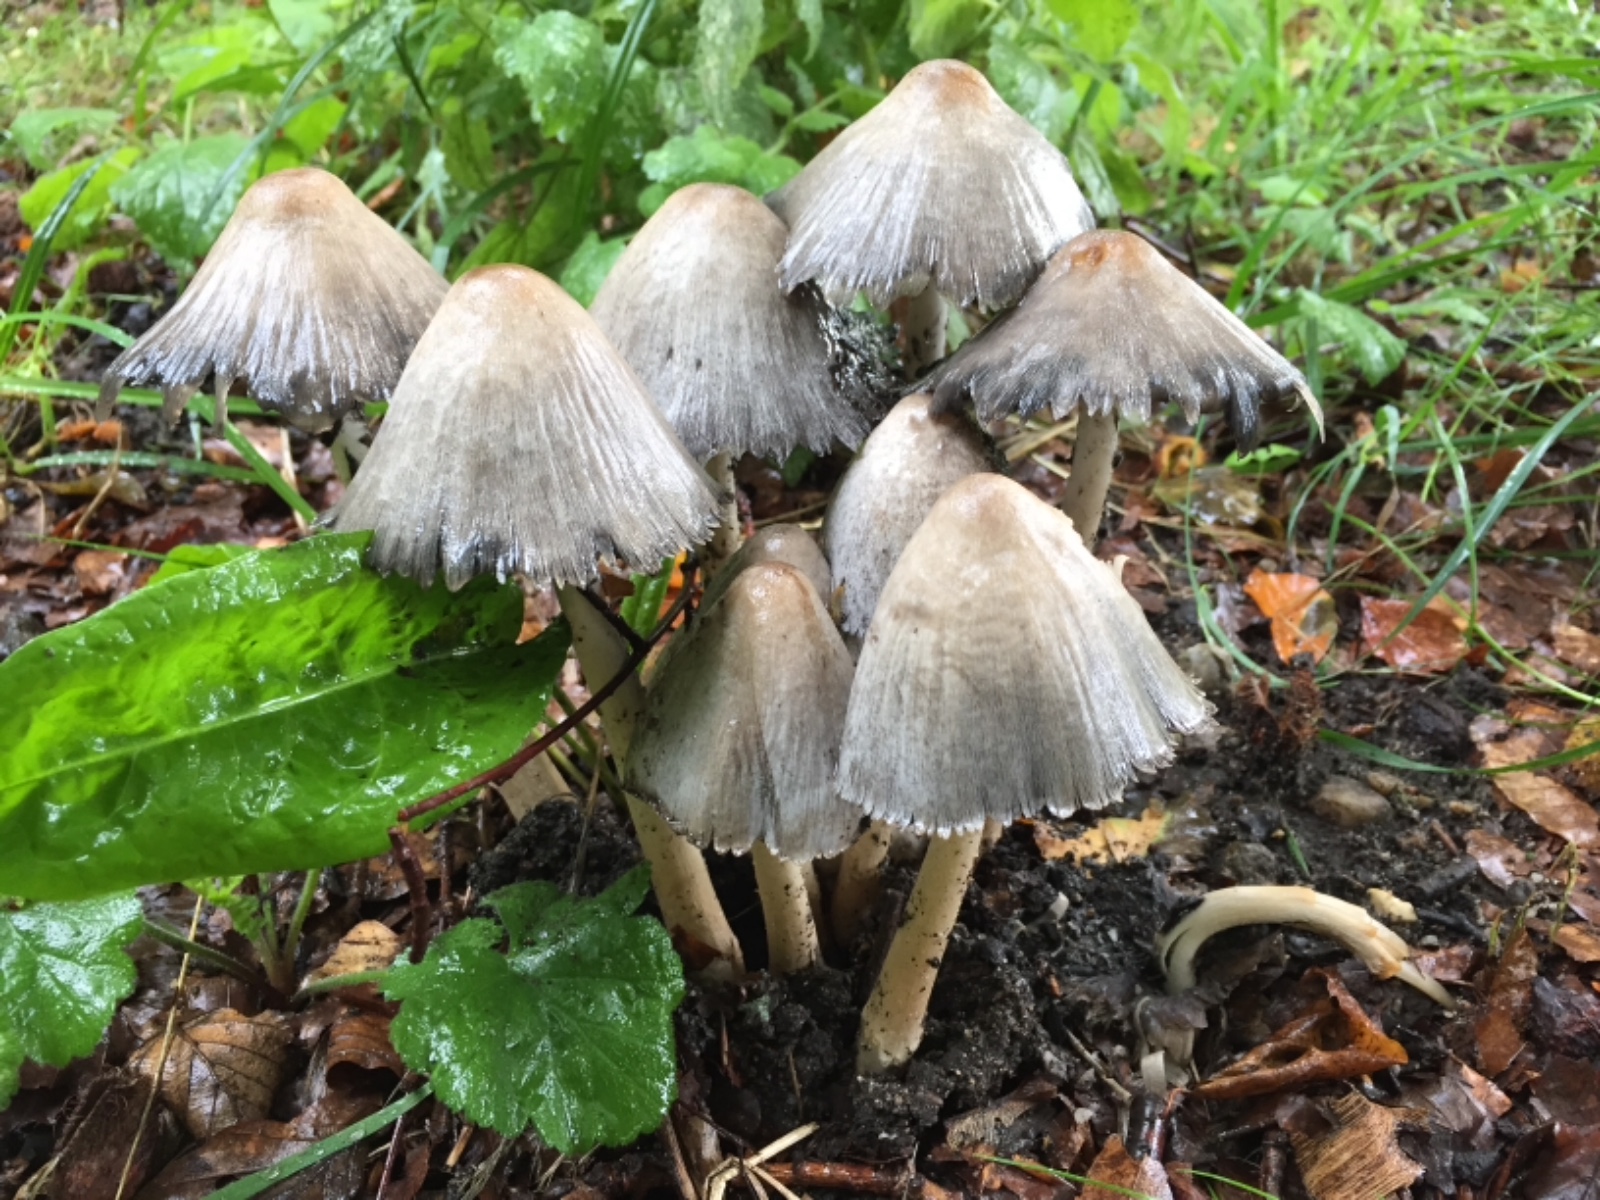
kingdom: Fungi
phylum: Basidiomycota
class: Agaricomycetes
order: Agaricales
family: Psathyrellaceae
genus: Coprinopsis
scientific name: Coprinopsis atramentaria
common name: almindelig blækhat
